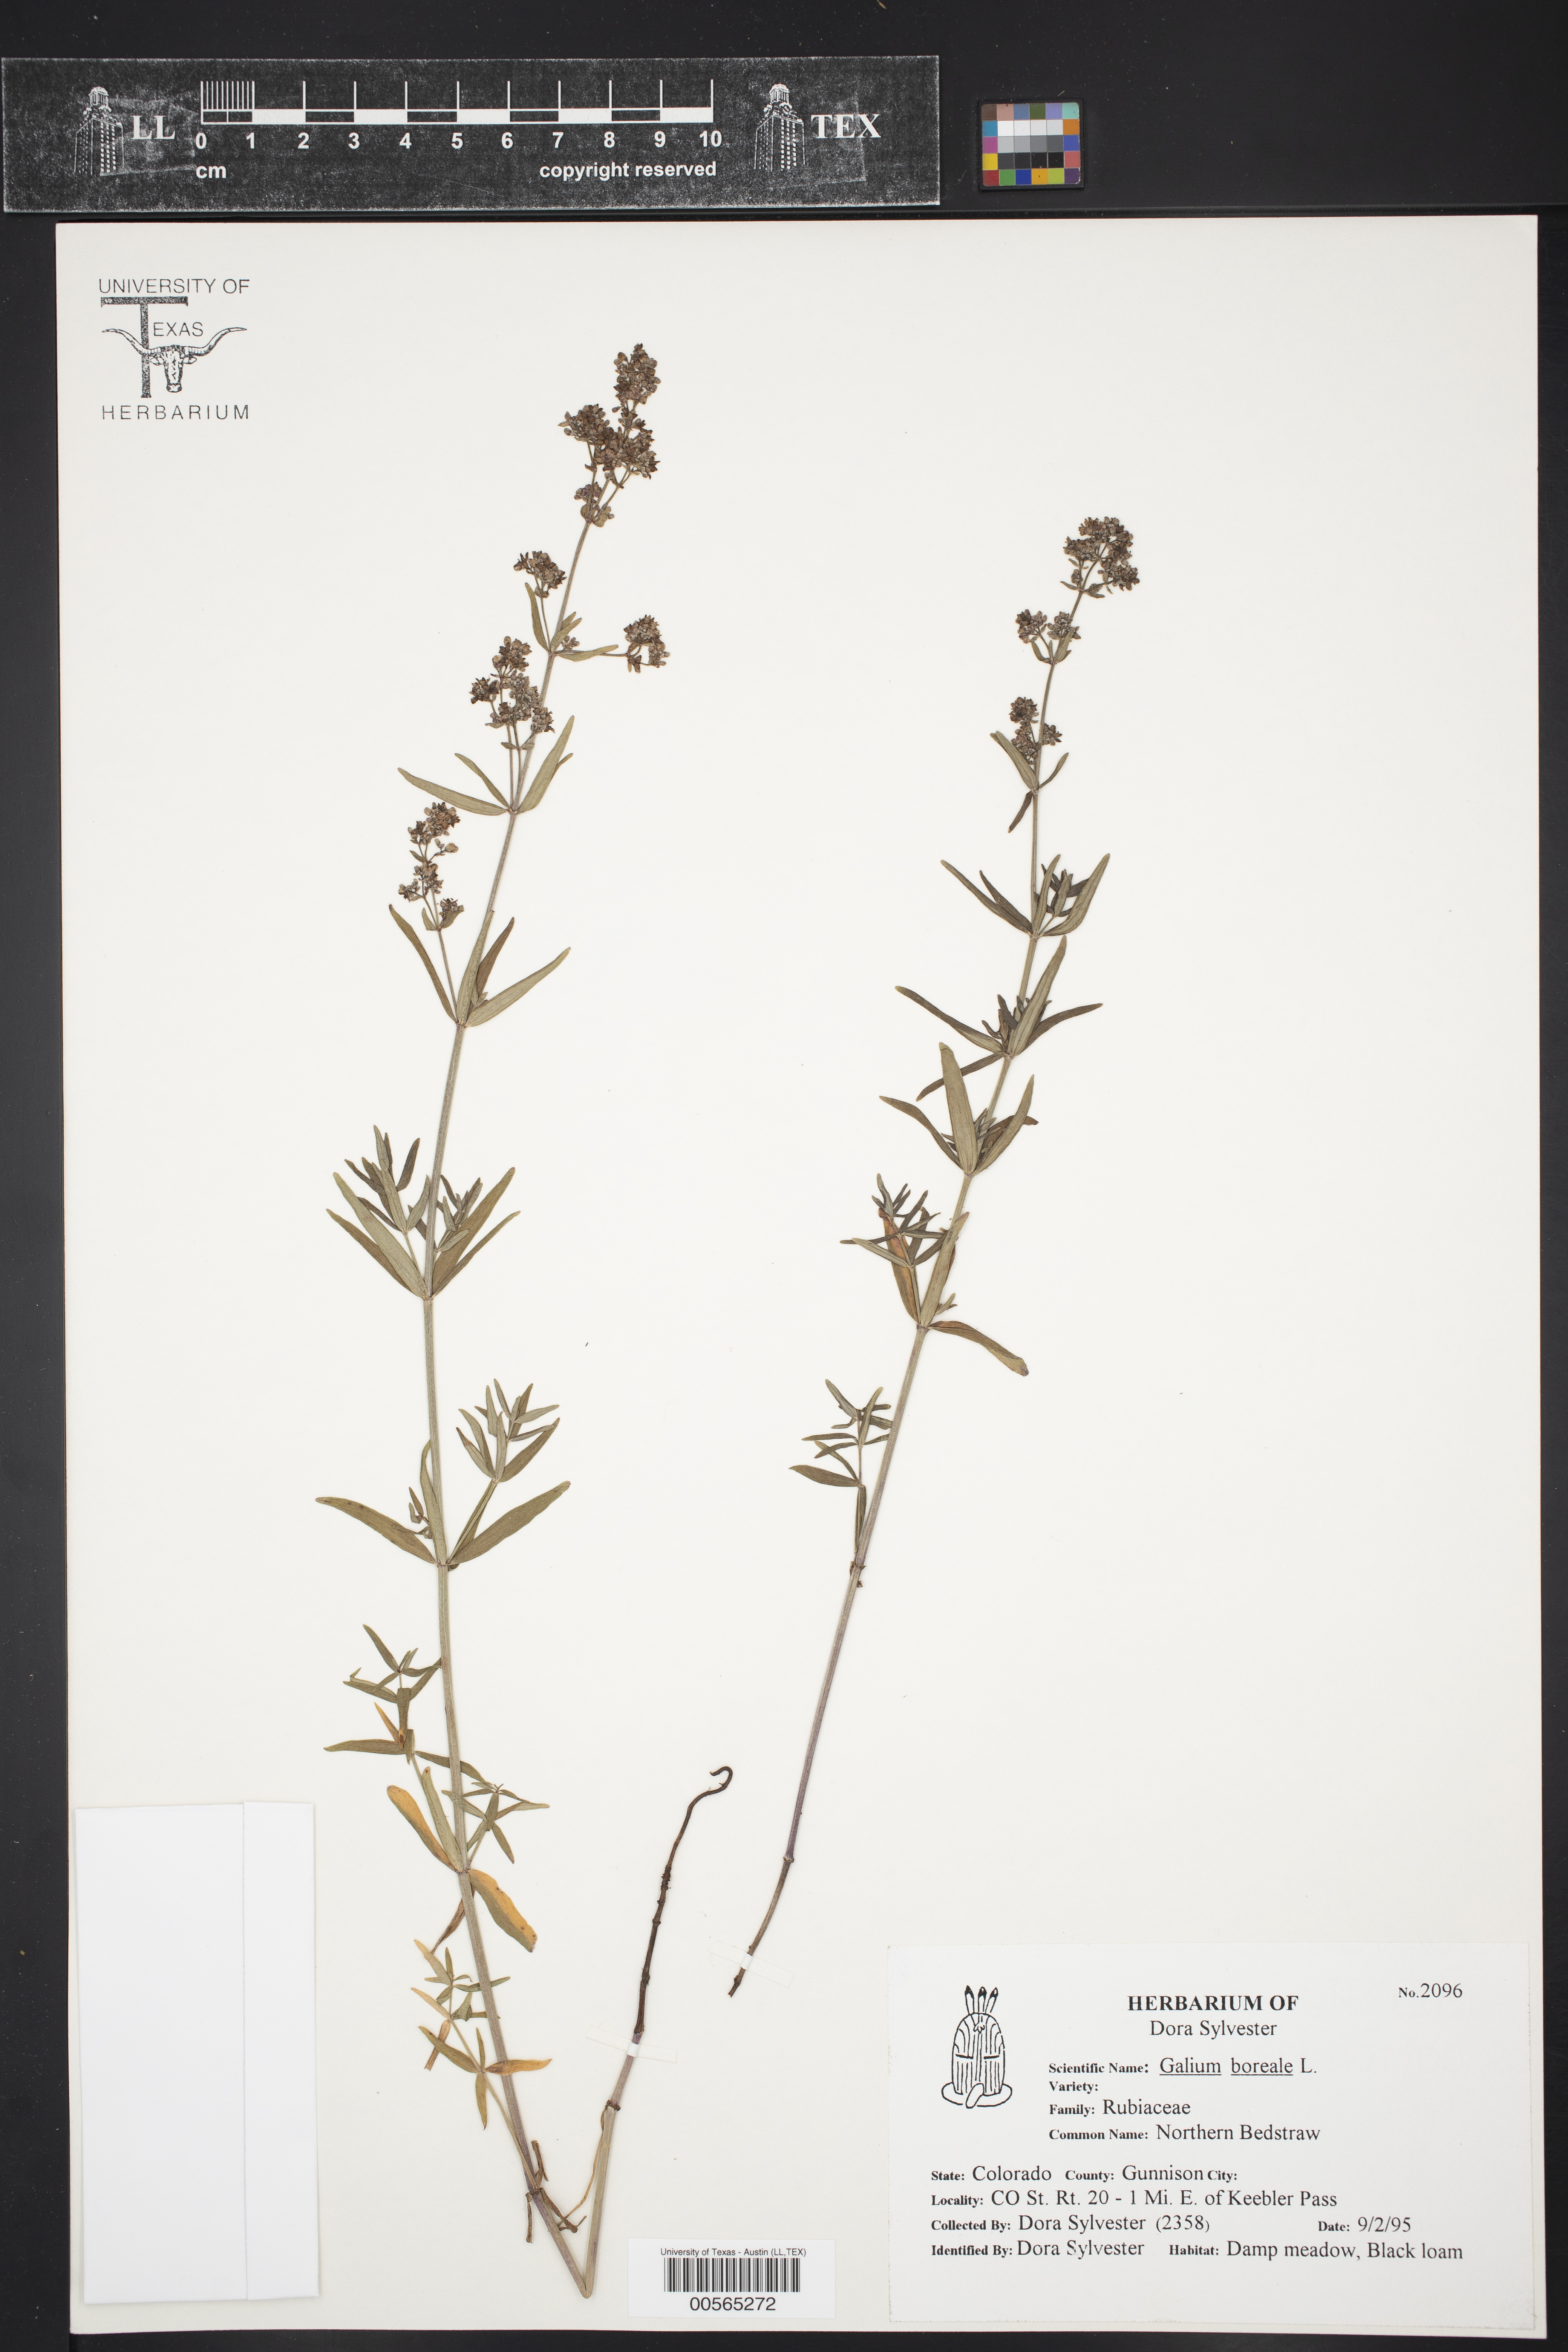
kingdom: Plantae
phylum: Tracheophyta
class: Magnoliopsida
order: Gentianales
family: Rubiaceae
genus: Galium
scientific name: Galium boreale
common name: Northern bedstraw
